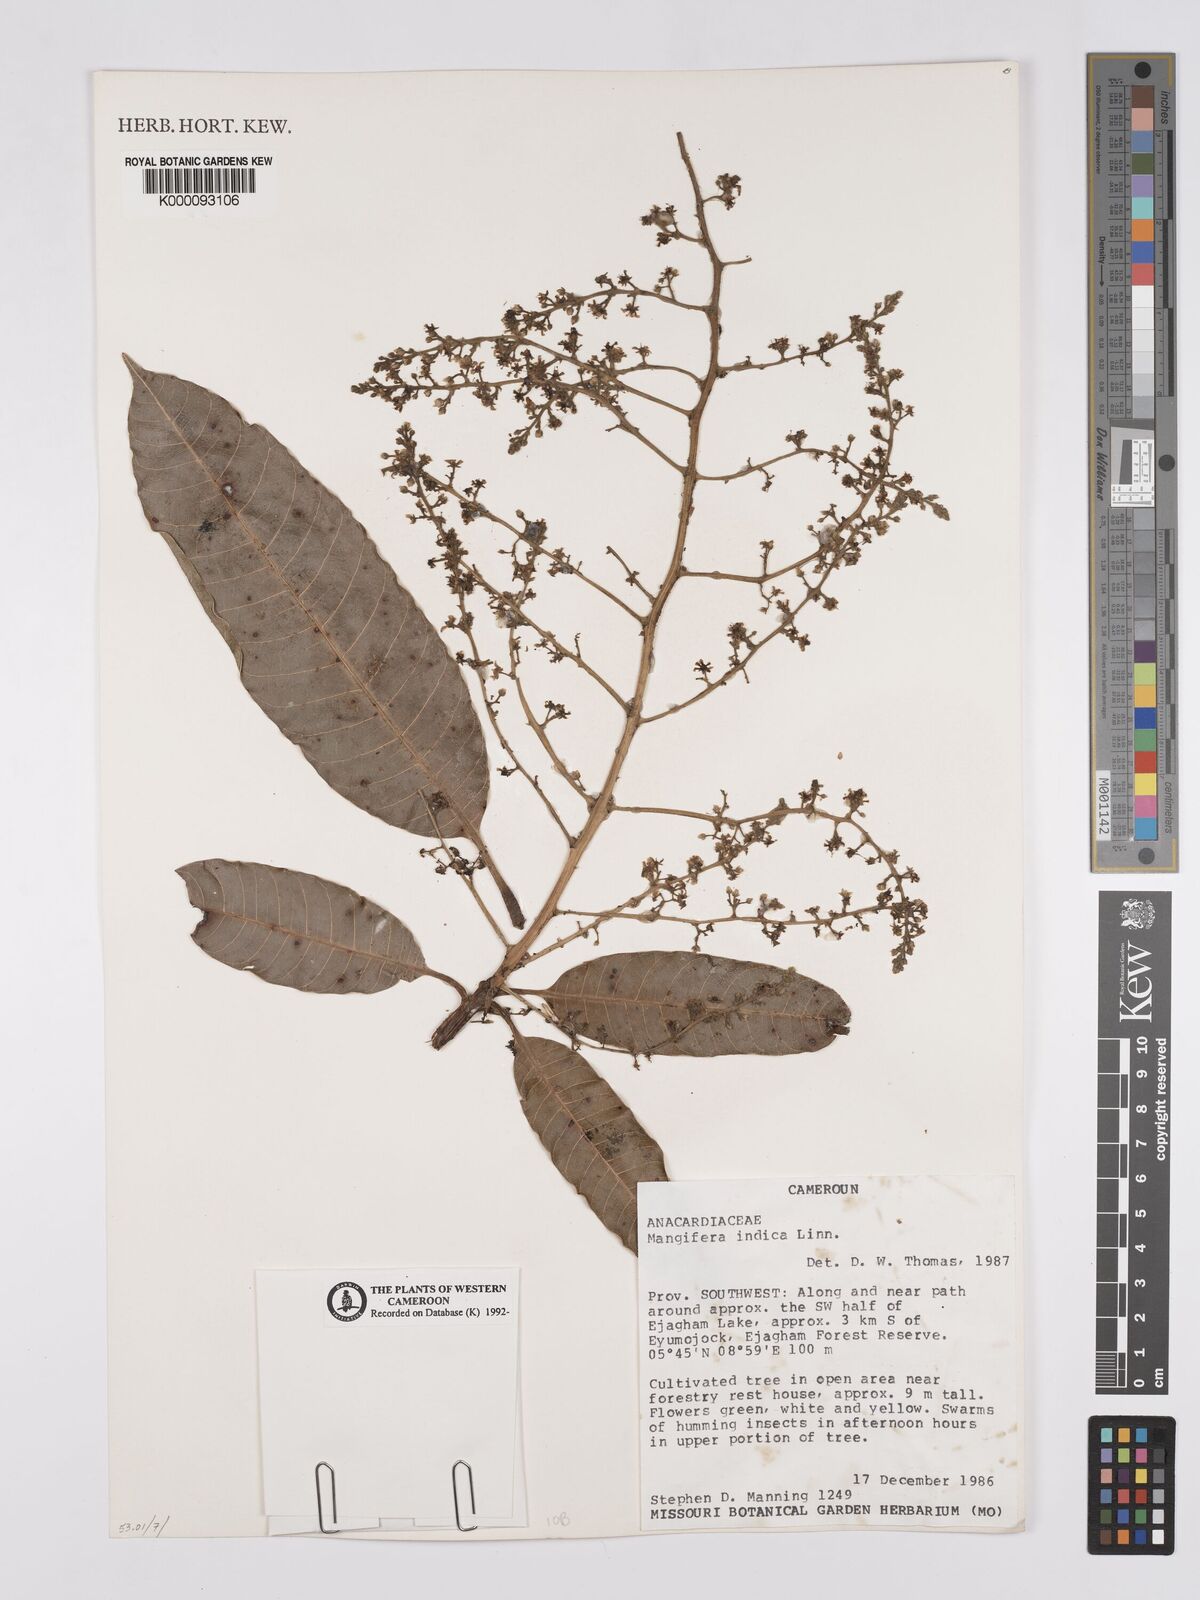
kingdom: Plantae
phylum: Tracheophyta
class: Magnoliopsida
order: Sapindales
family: Anacardiaceae
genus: Mangifera
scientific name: Mangifera indica
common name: Mango
